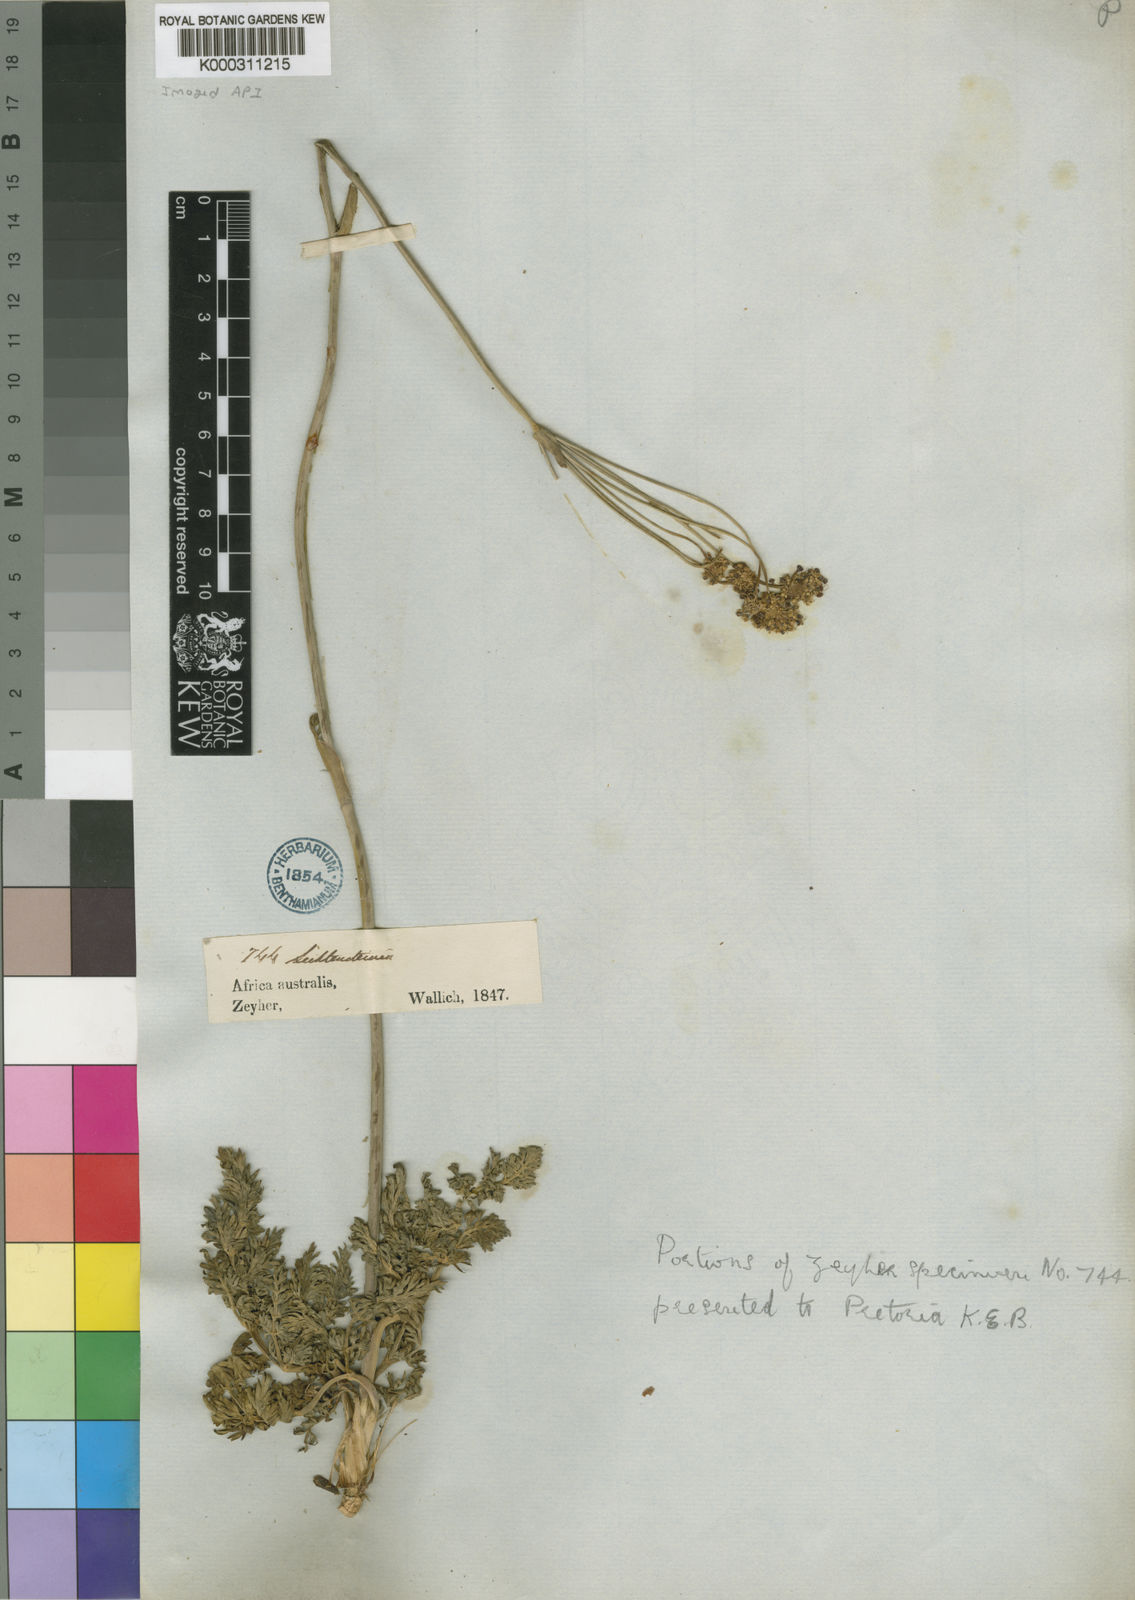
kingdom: Plantae
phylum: Tracheophyta
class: Magnoliopsida
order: Apiales
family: Apiaceae
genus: Afrosciadium
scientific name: Afrosciadium magalismontanum
